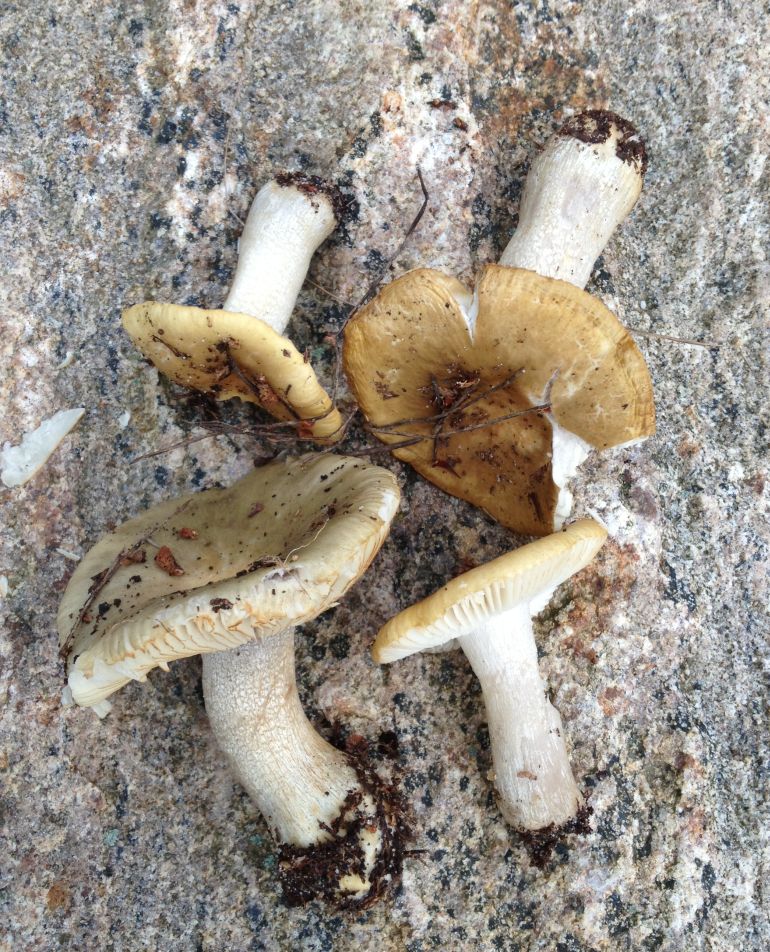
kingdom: Fungi
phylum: Basidiomycota
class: Agaricomycetes
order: Russulales
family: Russulaceae
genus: Russula
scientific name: Russula ochroleuca
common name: okkergul skørhat
